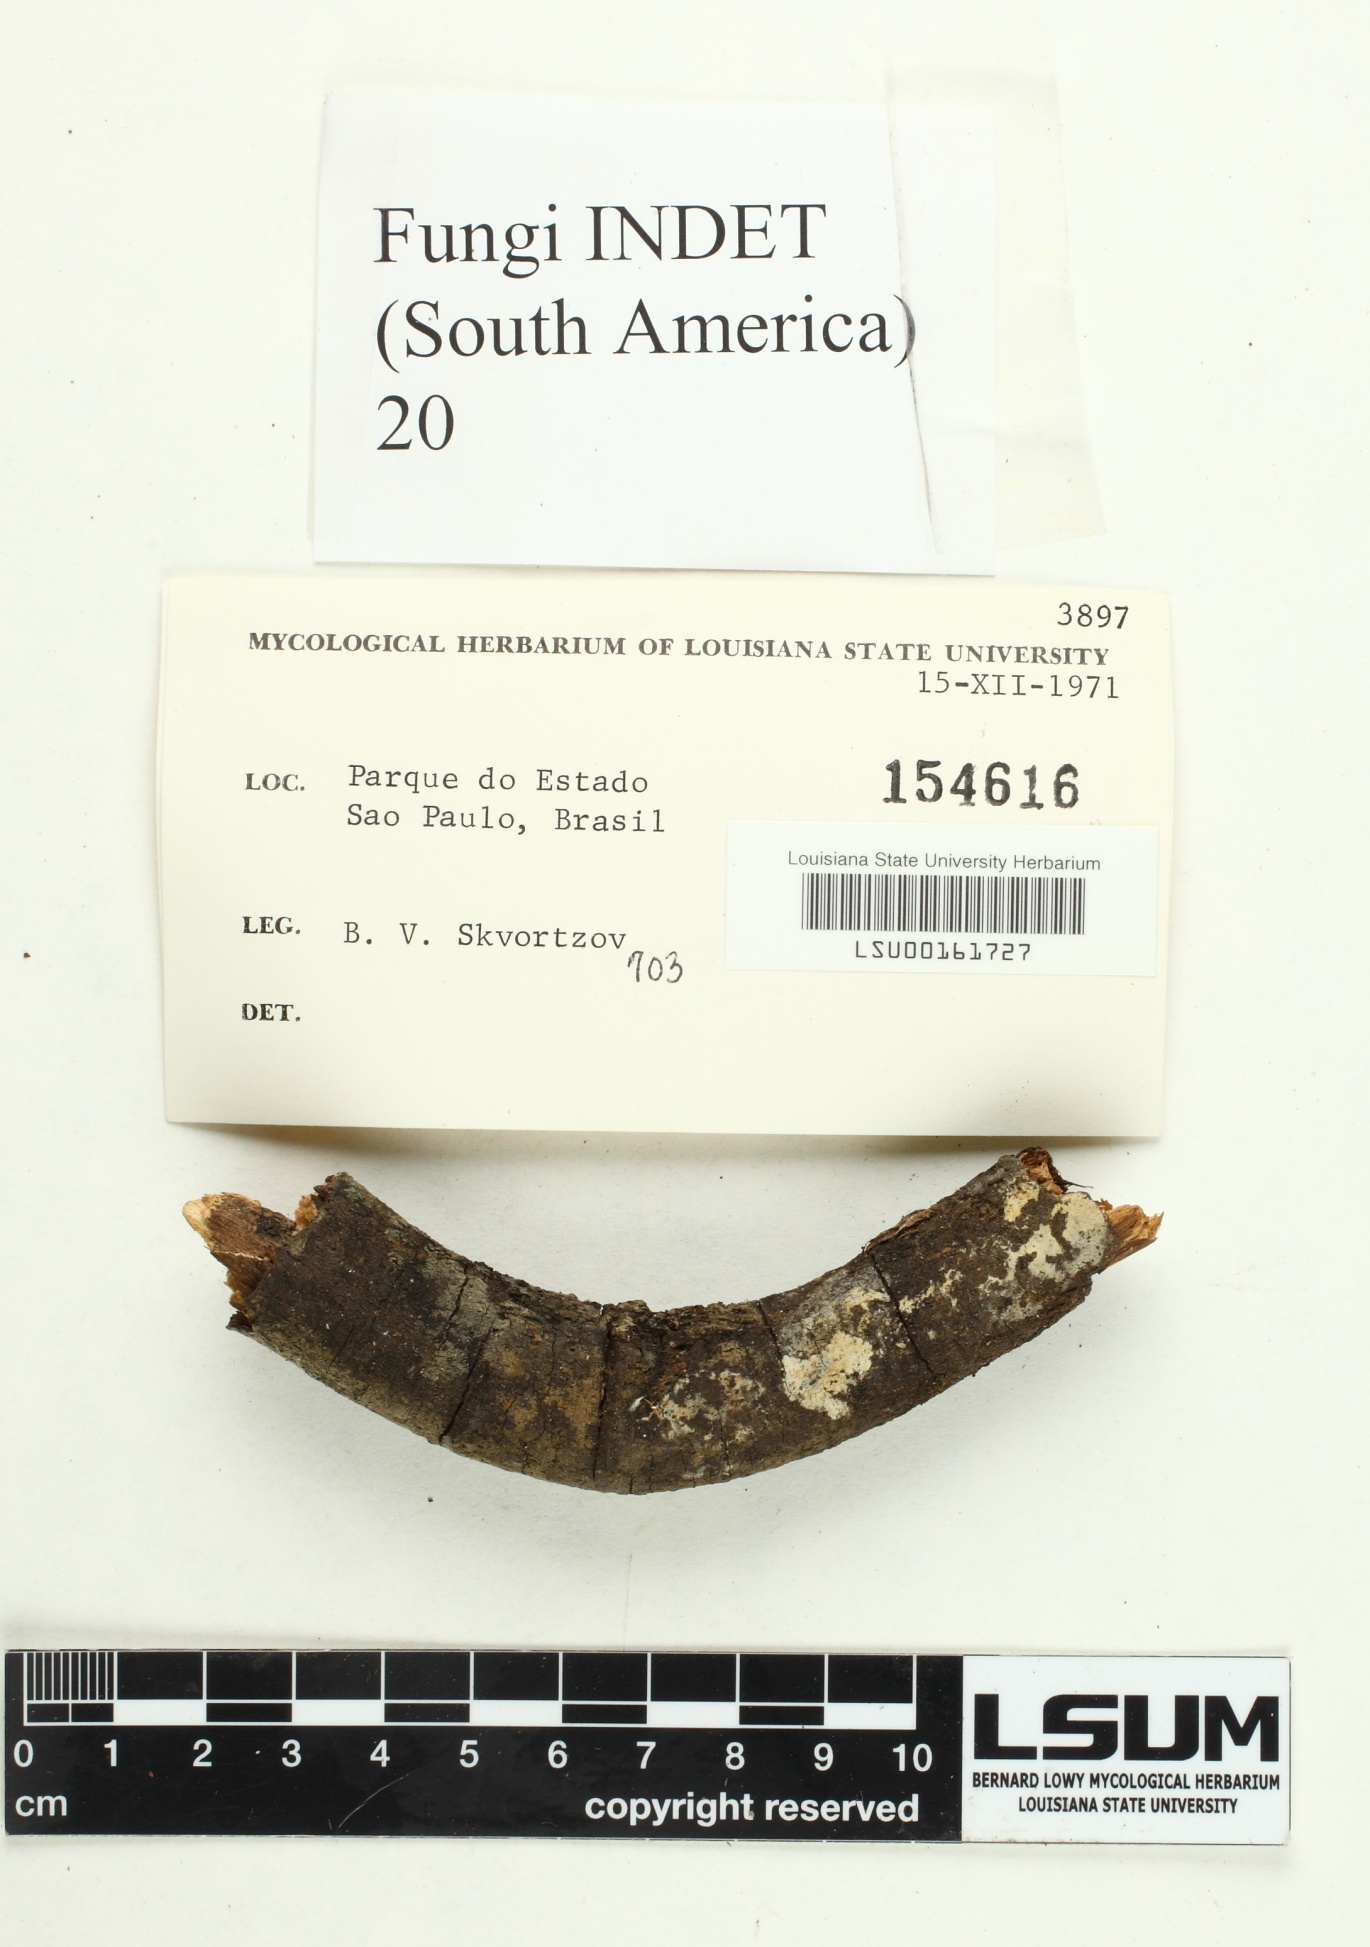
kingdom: Fungi
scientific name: Fungi
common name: Fungi
